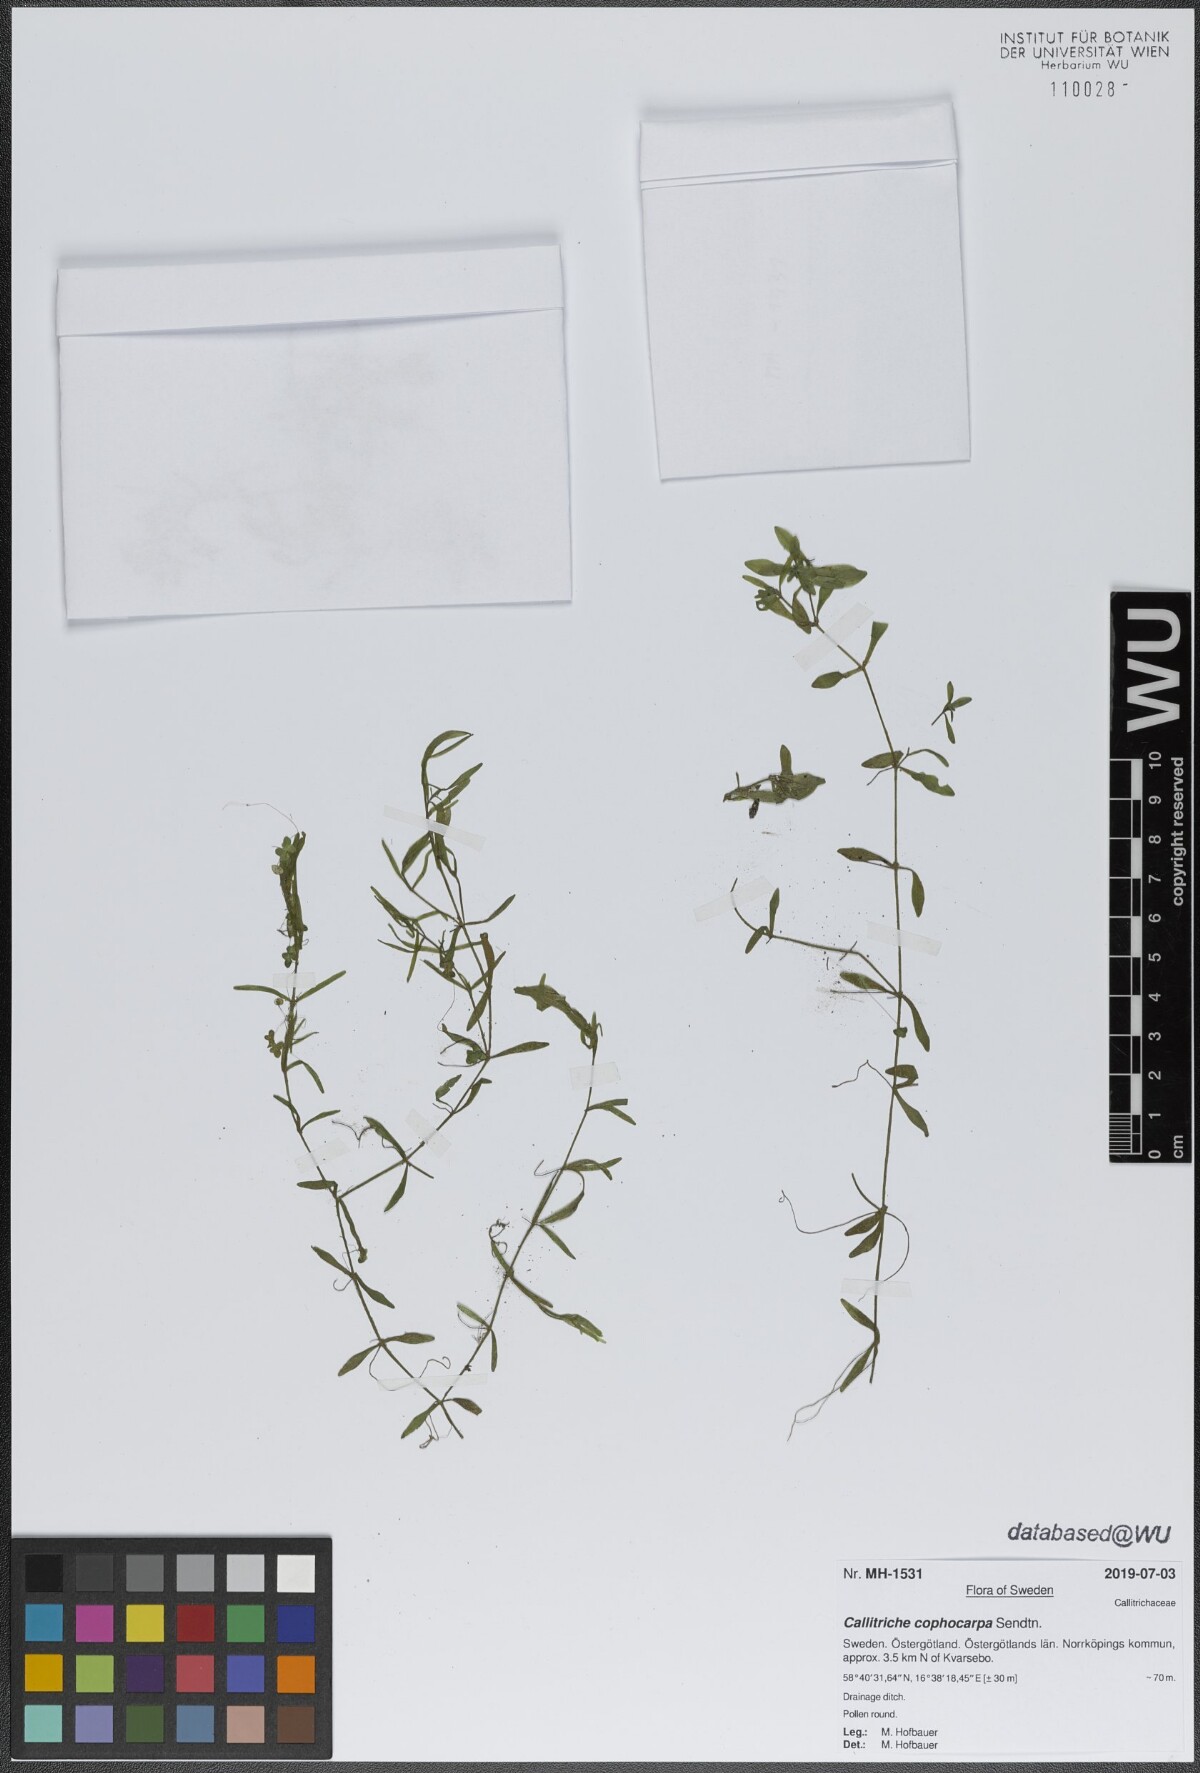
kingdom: Plantae
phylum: Tracheophyta
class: Magnoliopsida
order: Lamiales
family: Plantaginaceae
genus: Callitriche
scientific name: Callitriche cophocarpa
